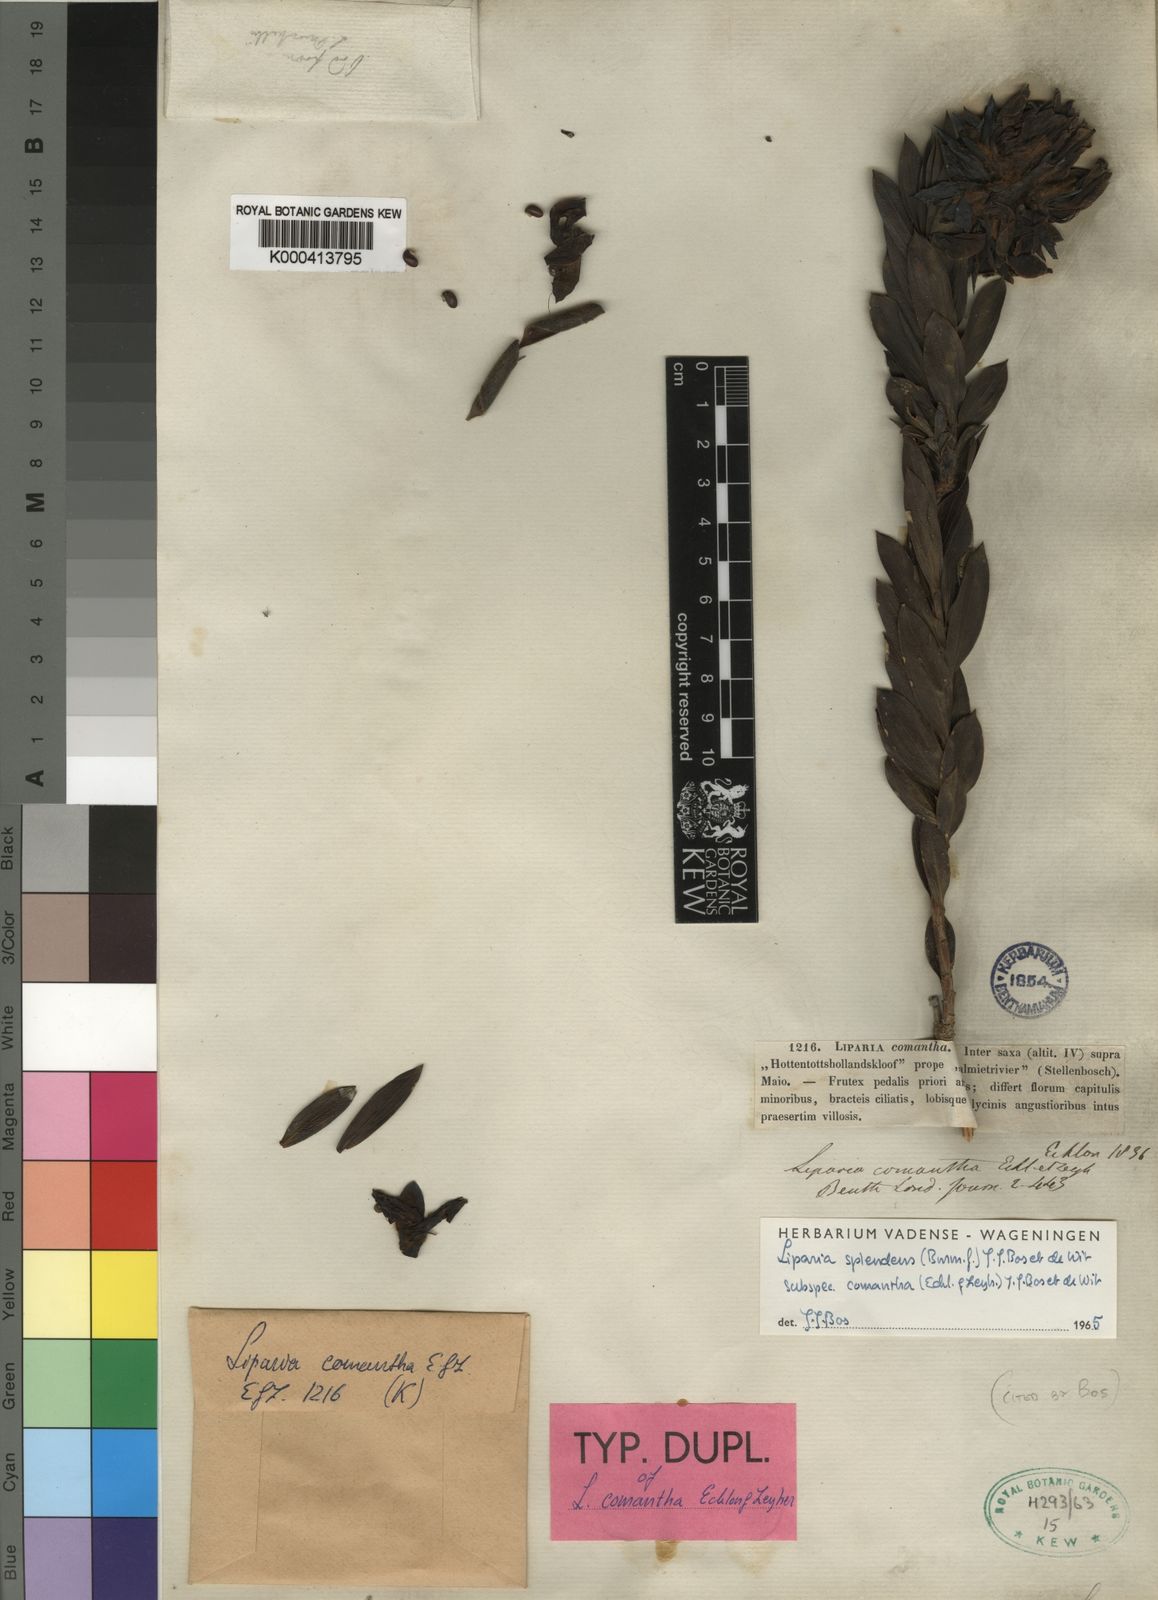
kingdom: Plantae
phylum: Tracheophyta
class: Magnoliopsida
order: Fabales
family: Fabaceae
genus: Liparia
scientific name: Liparia splendens
